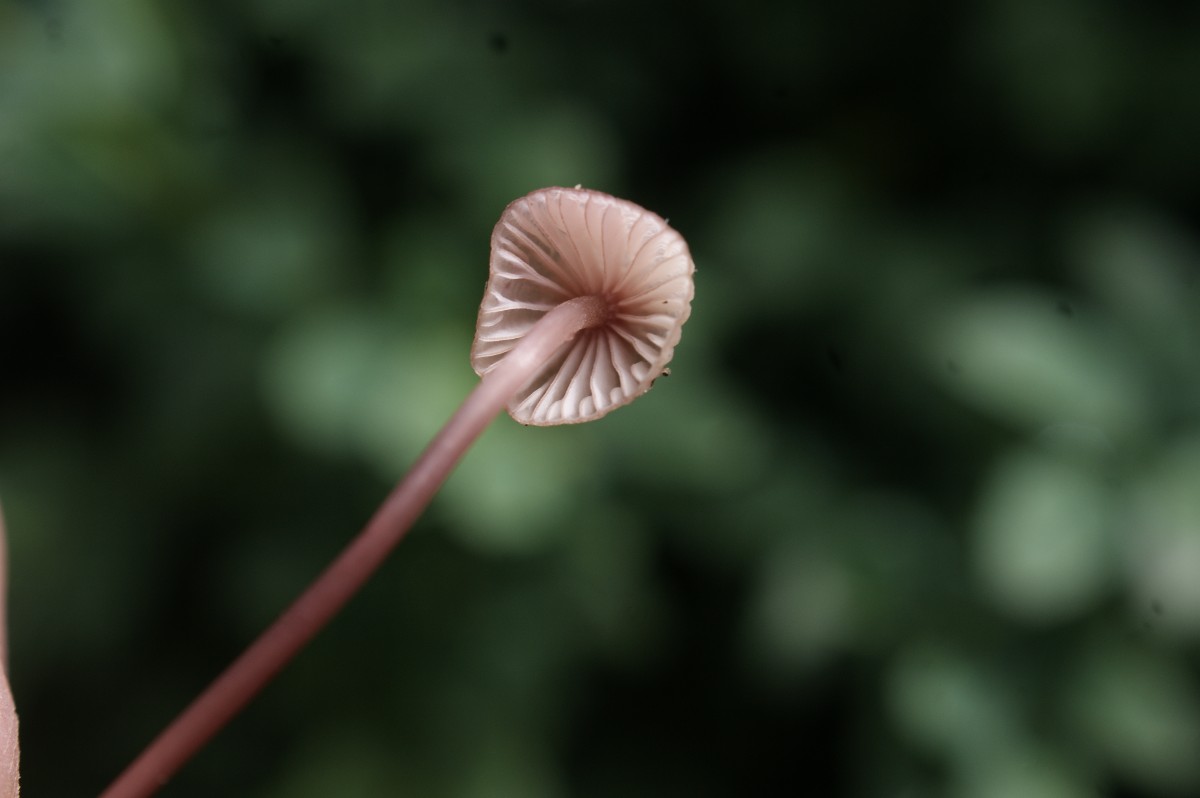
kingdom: Fungi
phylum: Basidiomycota
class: Agaricomycetes
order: Agaricales
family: Mycenaceae
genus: Mycena
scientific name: Mycena sanguinolenta
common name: rødmælket huesvamp
